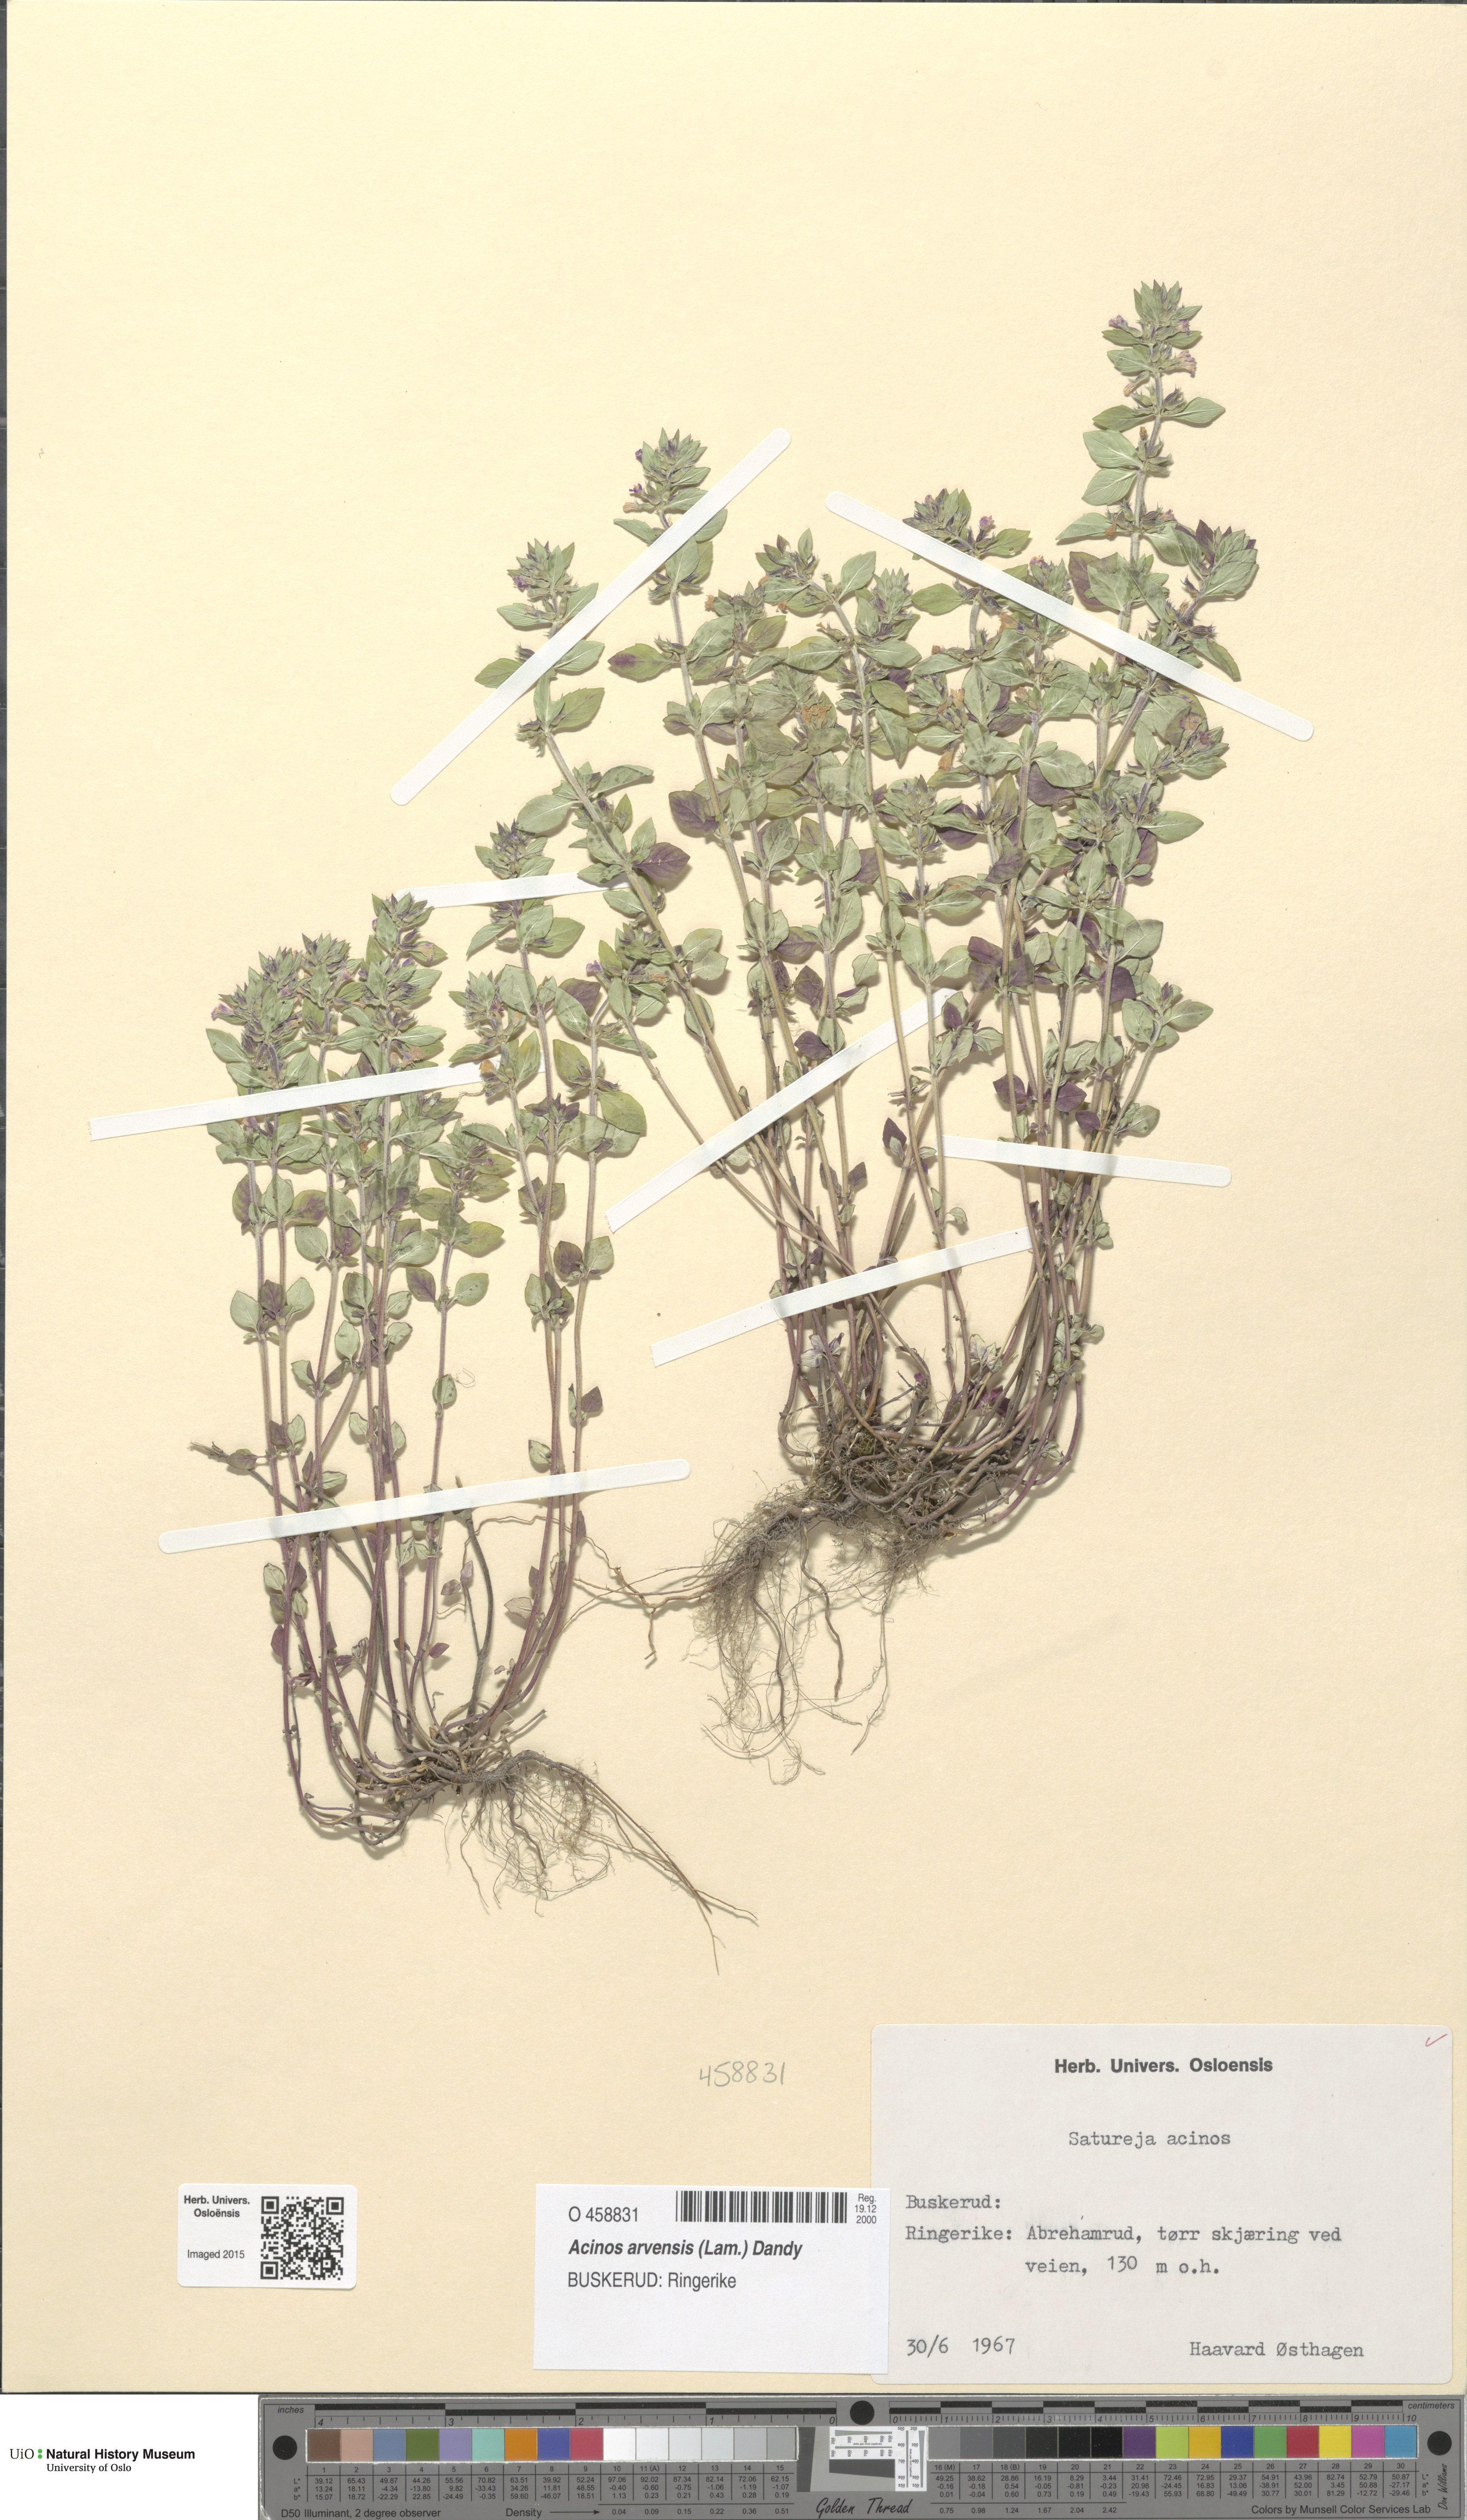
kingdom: Plantae
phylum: Tracheophyta
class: Magnoliopsida
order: Lamiales
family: Lamiaceae
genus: Clinopodium
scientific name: Clinopodium acinos
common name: Basil thyme
